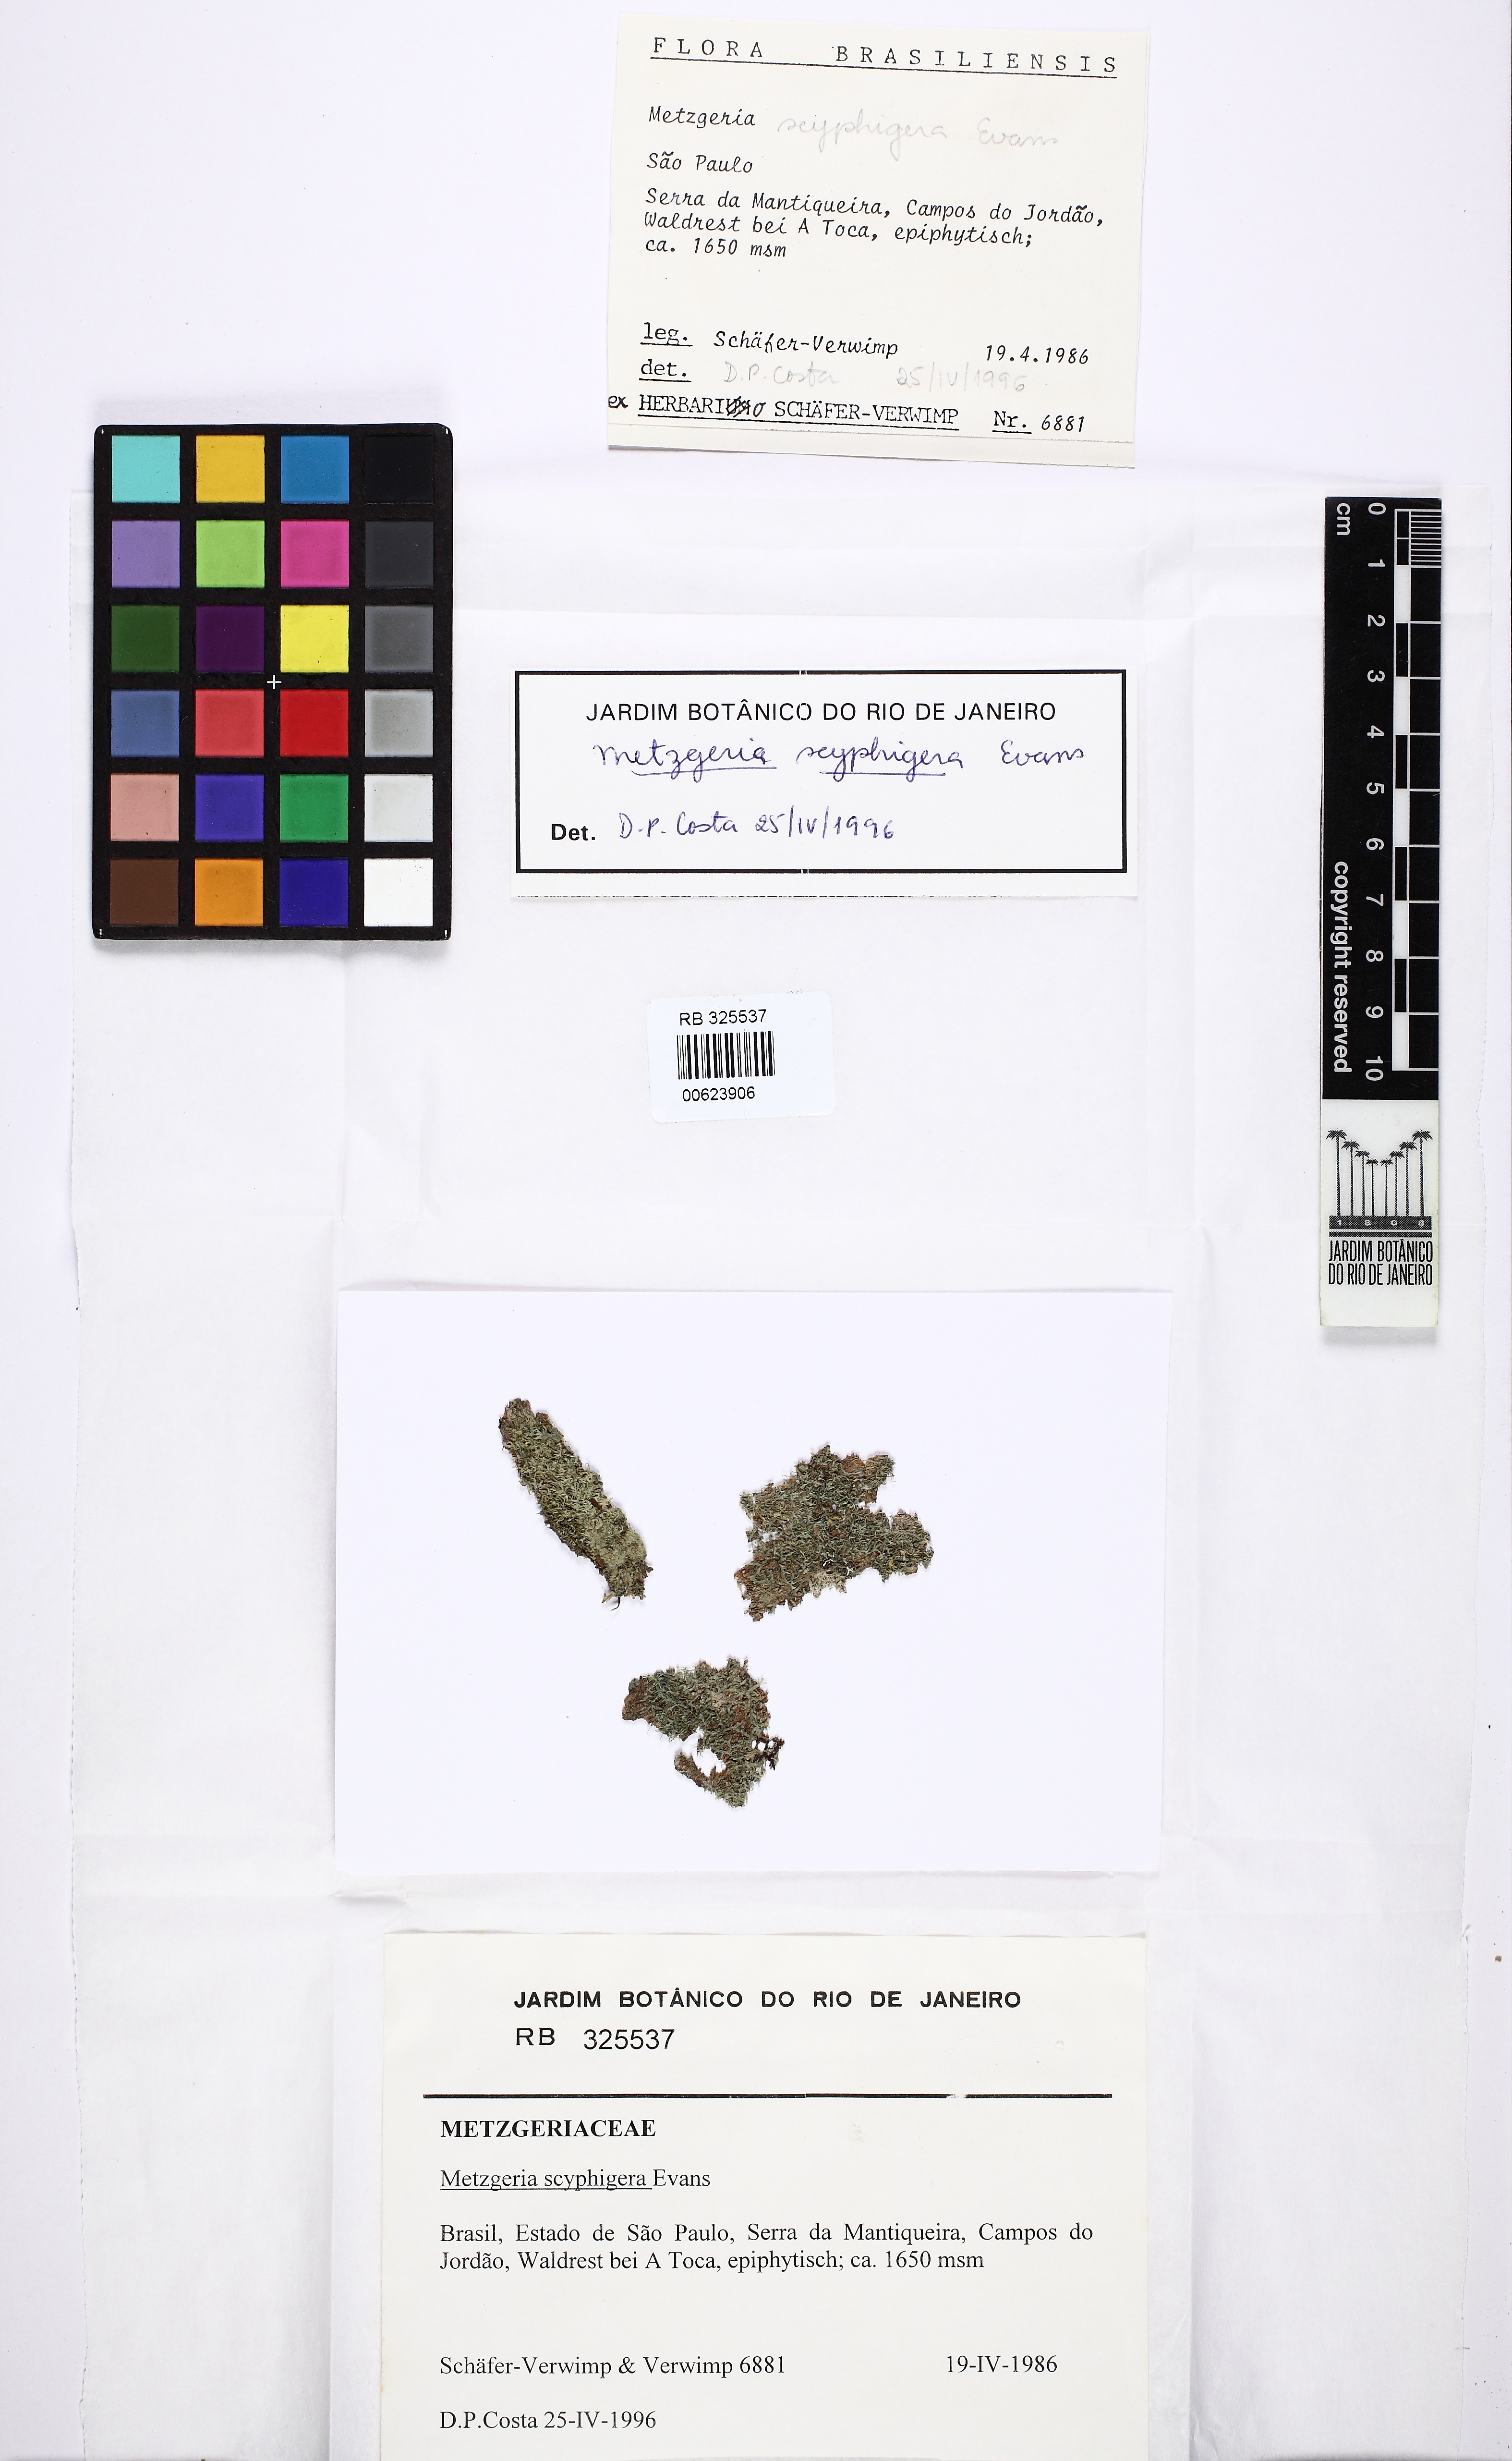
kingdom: Plantae
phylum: Marchantiophyta
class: Jungermanniopsida
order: Metzgeriales
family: Metzgeriaceae
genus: Metzgeria
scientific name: Metzgeria scyphigera
